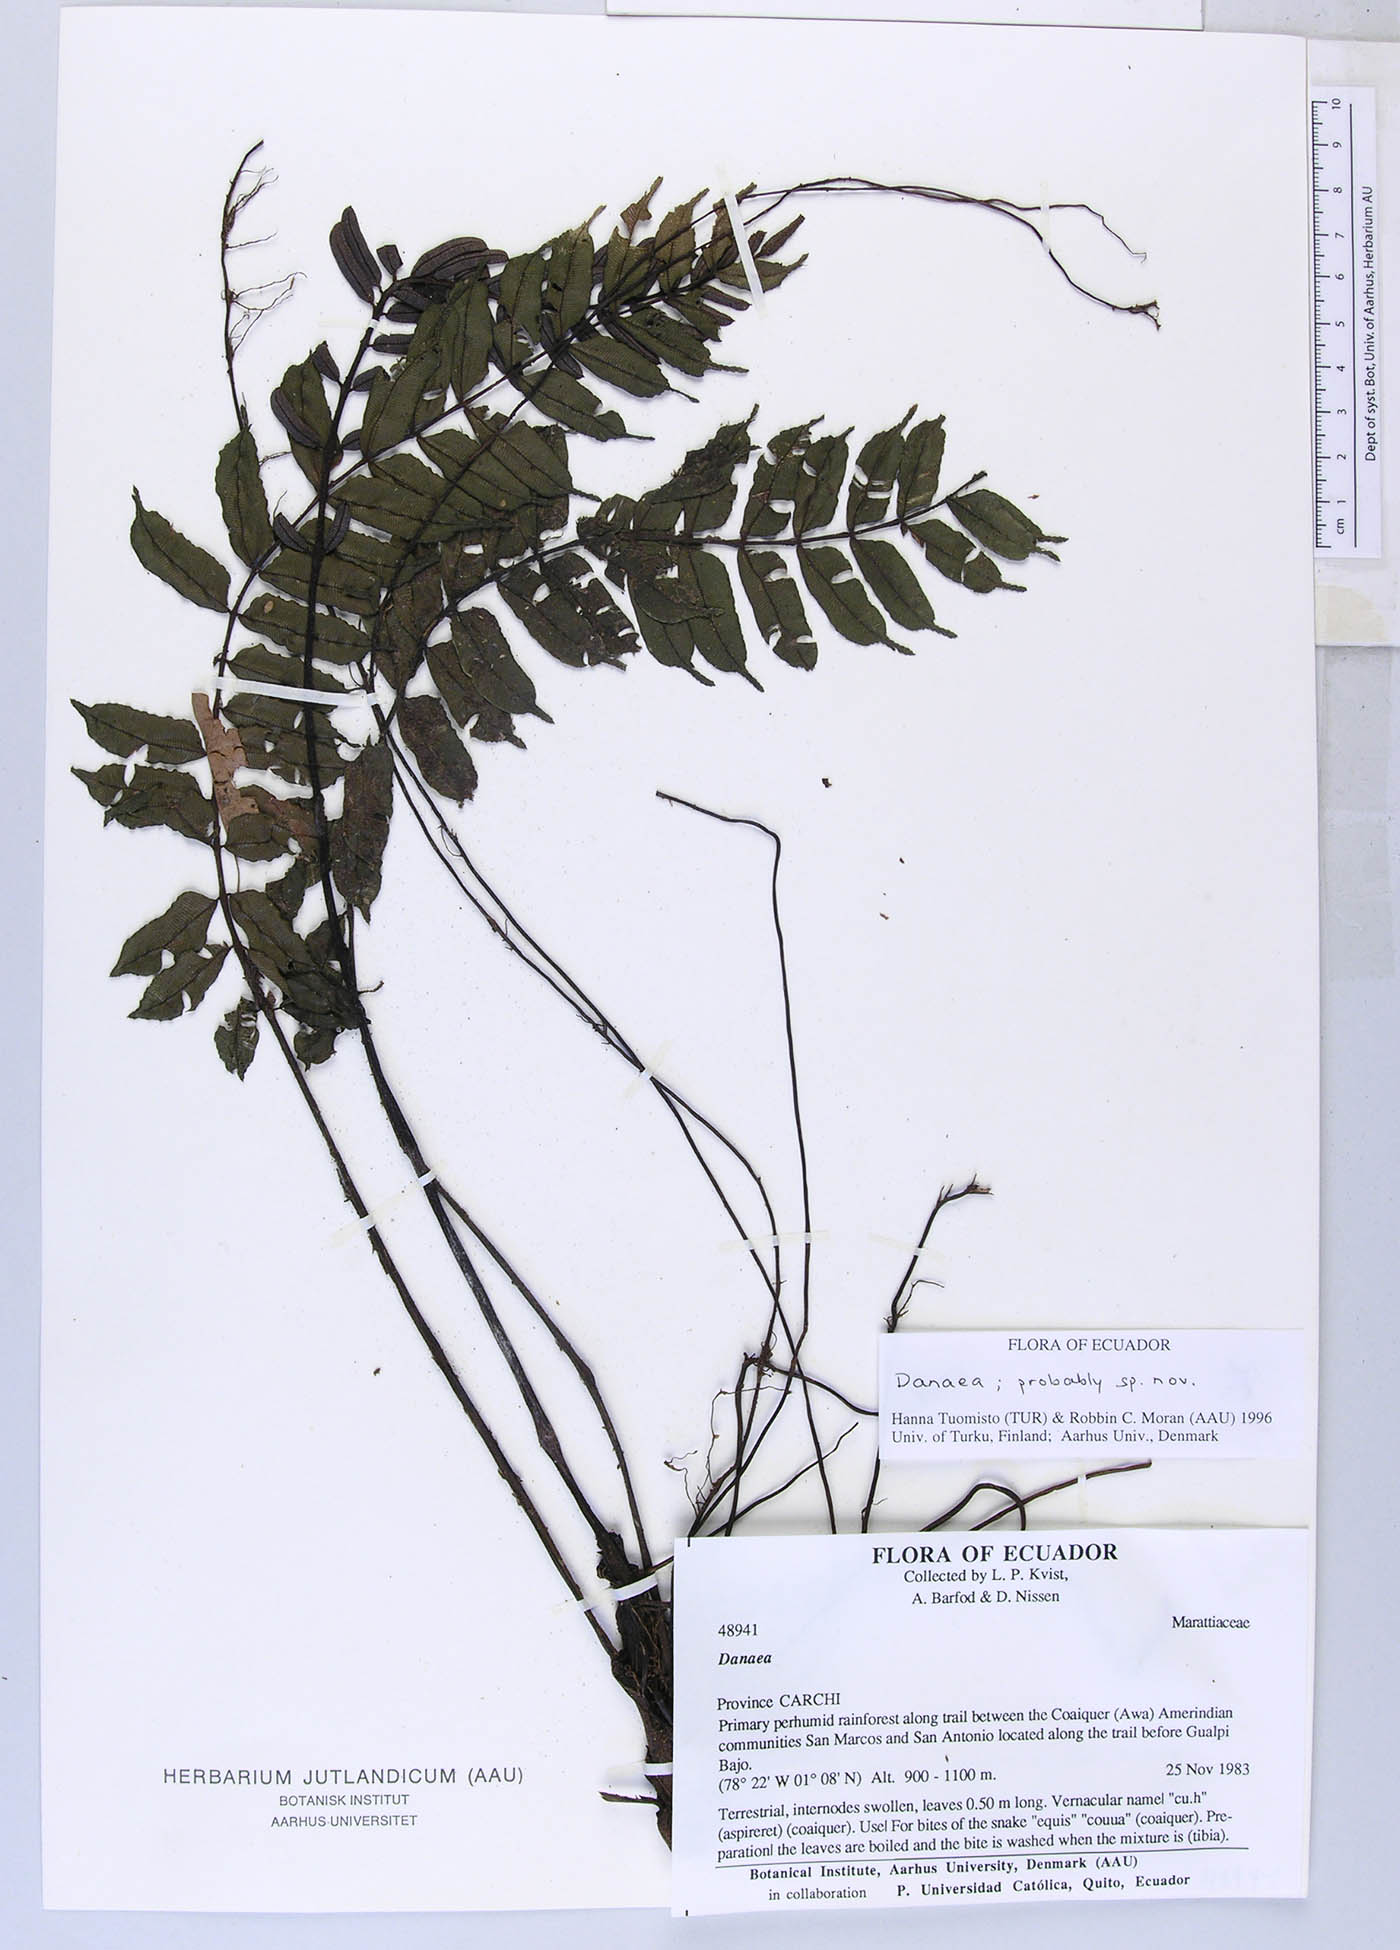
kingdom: Plantae
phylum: Tracheophyta
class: Polypodiopsida
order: Marattiales
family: Marattiaceae
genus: Danaea
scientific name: Danaea
